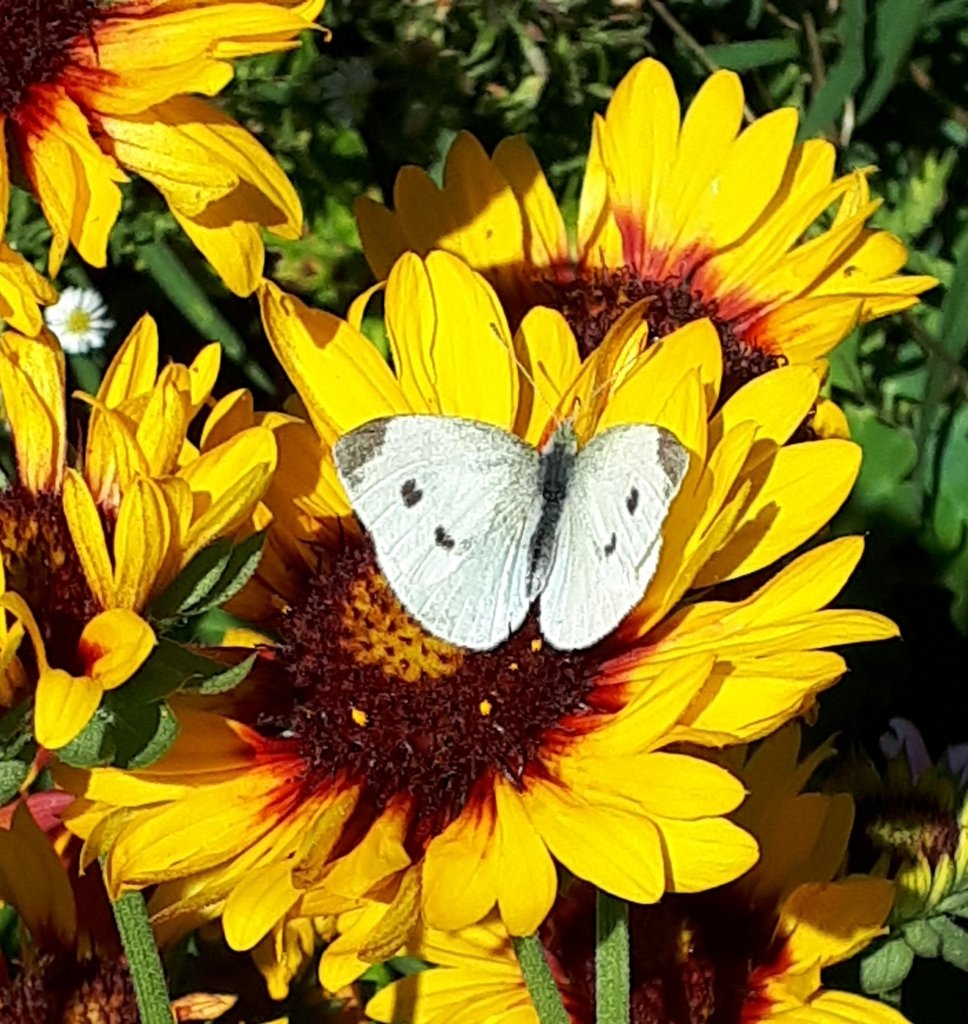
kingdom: Animalia
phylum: Arthropoda
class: Insecta
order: Lepidoptera
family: Pieridae
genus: Pieris
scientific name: Pieris rapae
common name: Cabbage White
